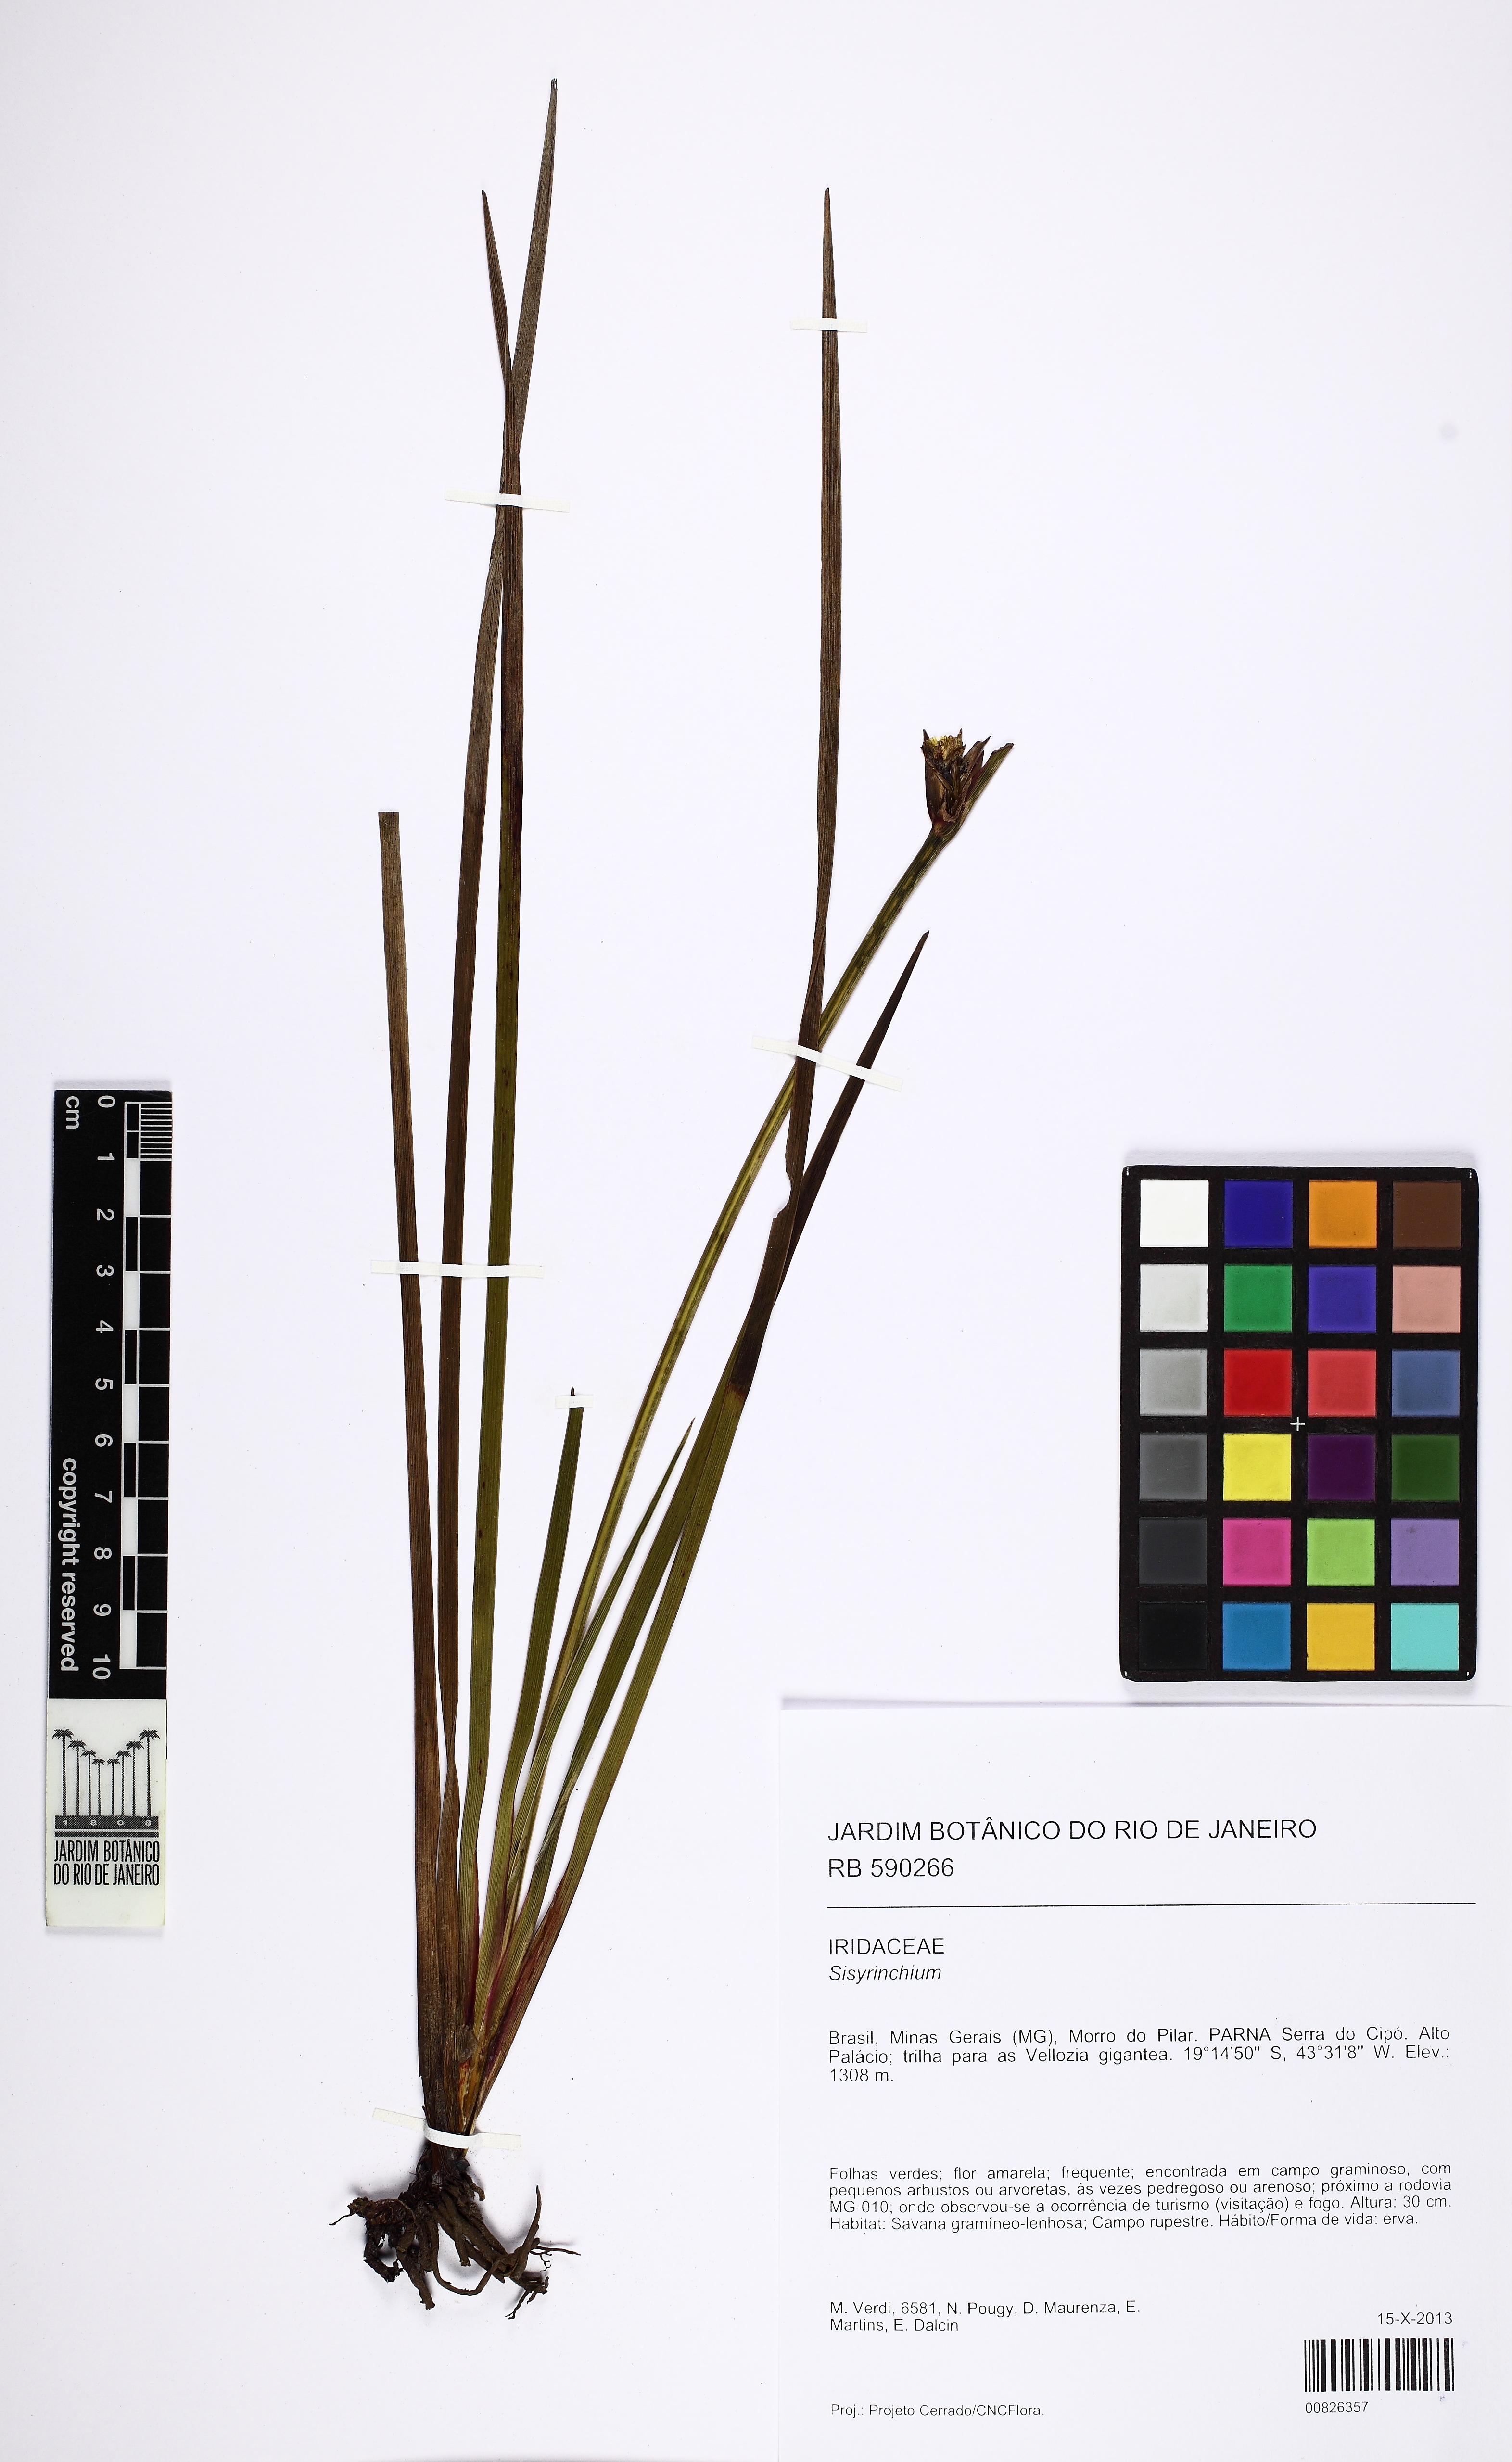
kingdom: Plantae
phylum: Tracheophyta
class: Liliopsida
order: Asparagales
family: Iridaceae
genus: Sisyrinchium
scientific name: Sisyrinchium nidulare
